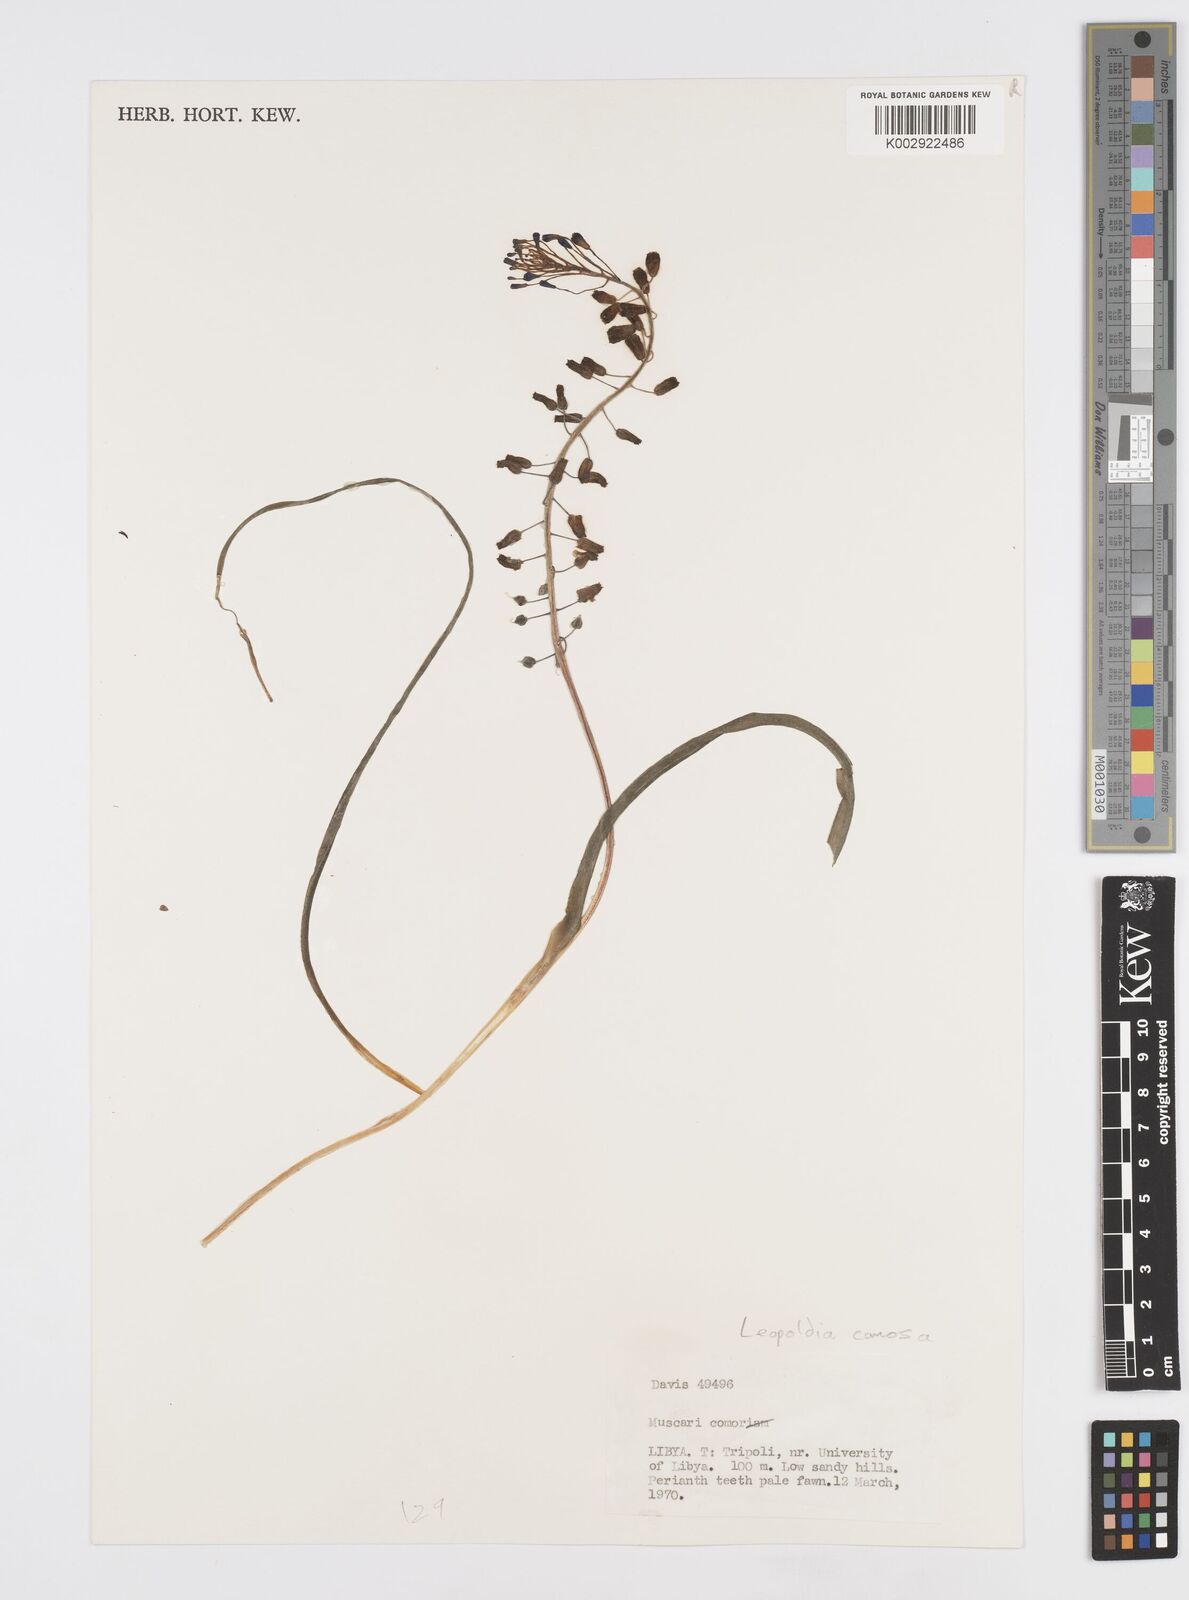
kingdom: Plantae
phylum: Tracheophyta
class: Liliopsida
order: Asparagales
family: Asparagaceae
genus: Muscari
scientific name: Muscari comosum
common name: Tassel hyacinth
